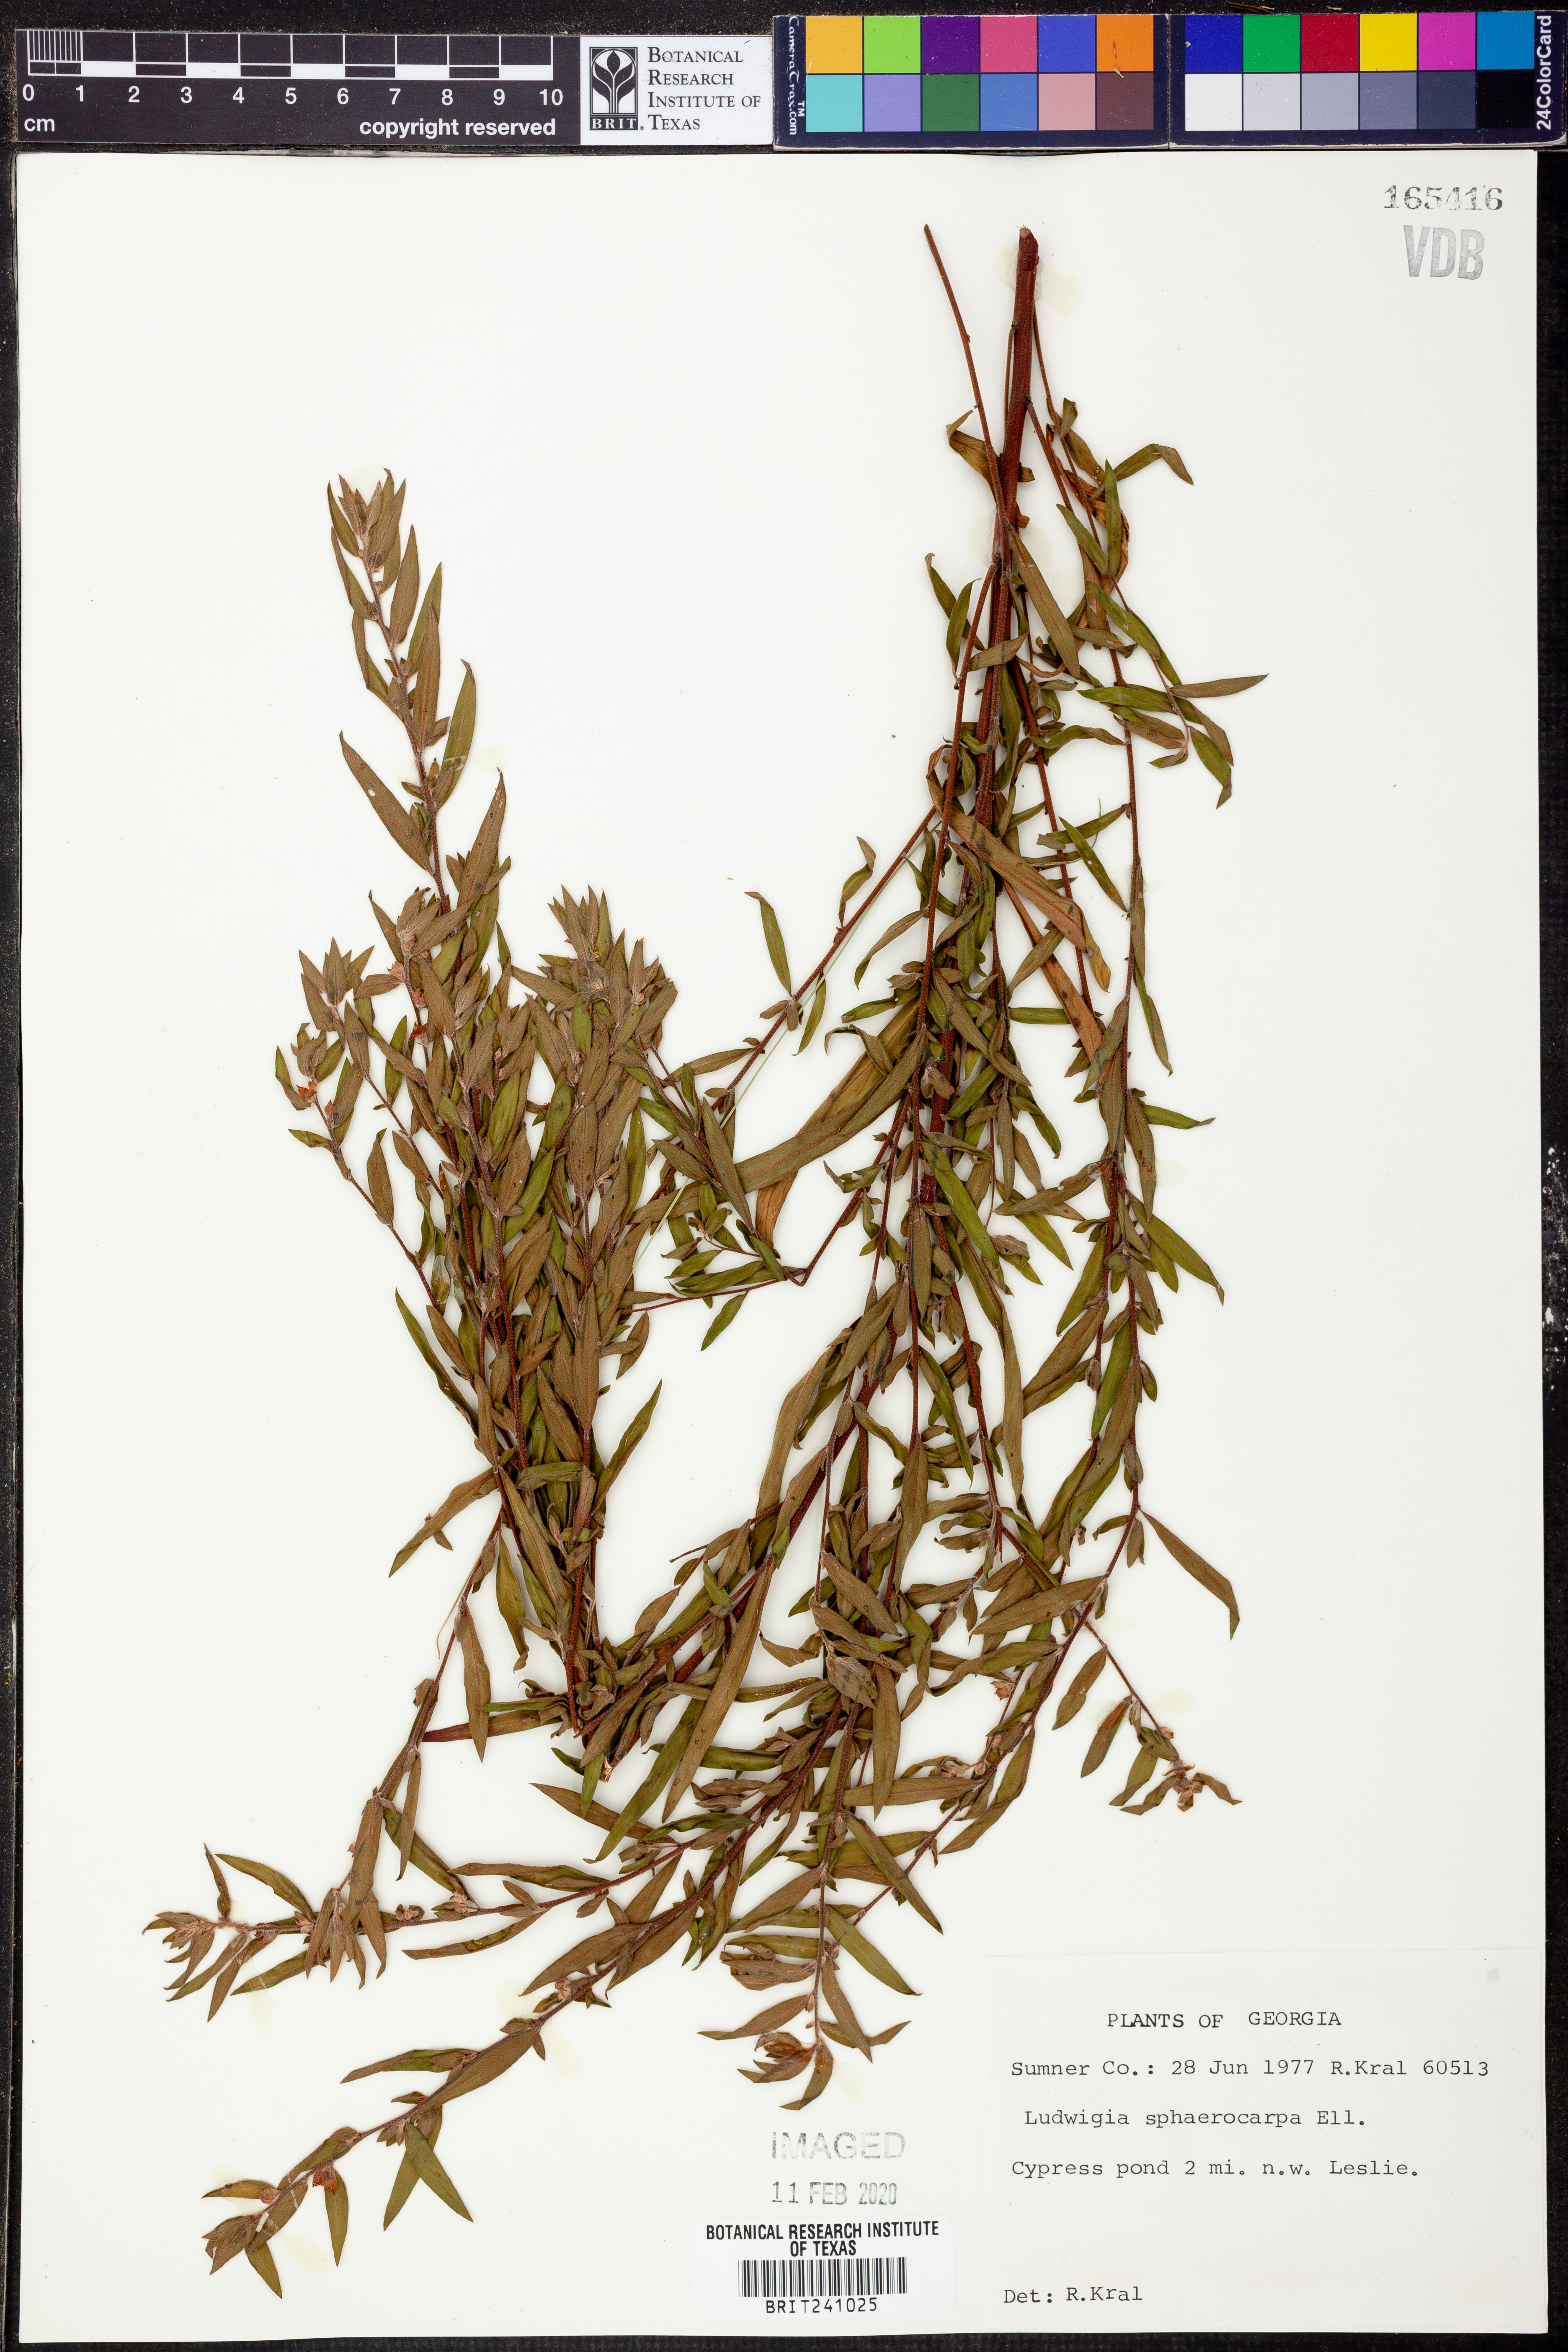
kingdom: Plantae
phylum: Tracheophyta
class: Magnoliopsida
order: Myrtales
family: Onagraceae
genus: Ludwigia
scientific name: Ludwigia sphaerocarpa
